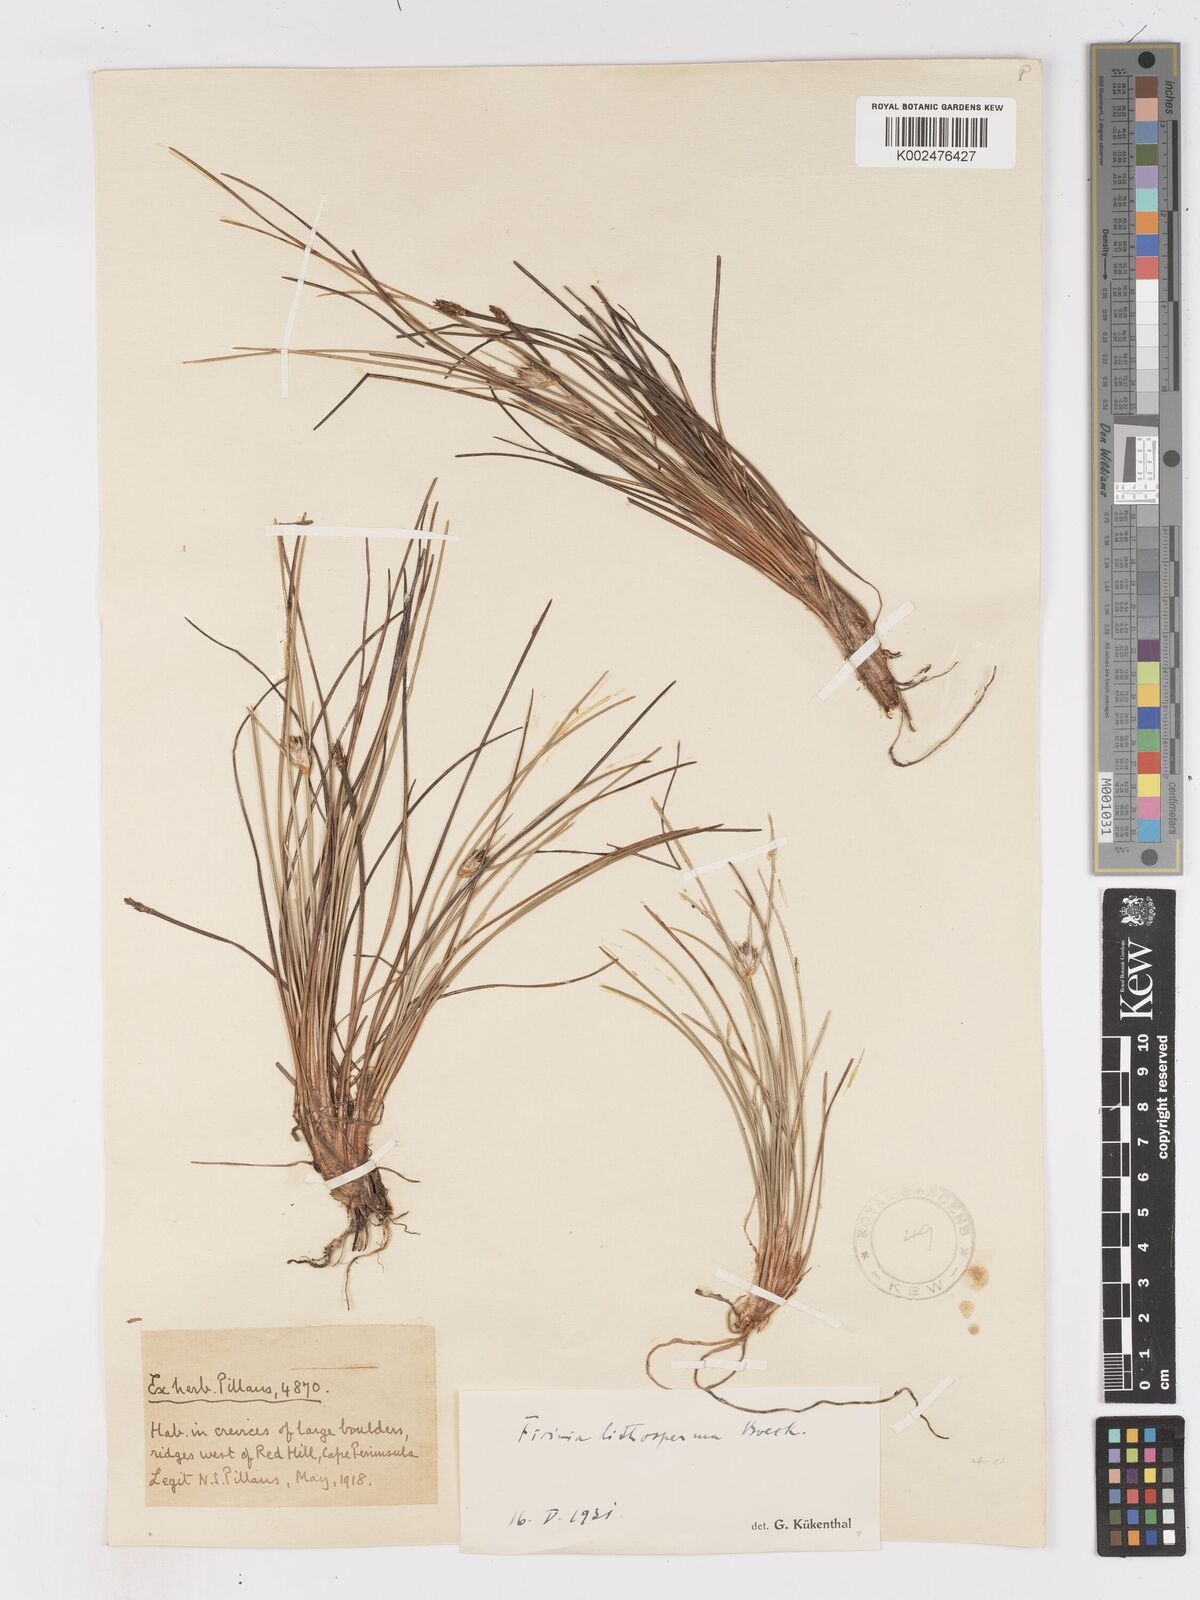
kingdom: Plantae
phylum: Tracheophyta
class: Liliopsida
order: Poales
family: Cyperaceae
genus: Ficinia
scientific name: Ficinia pallens
